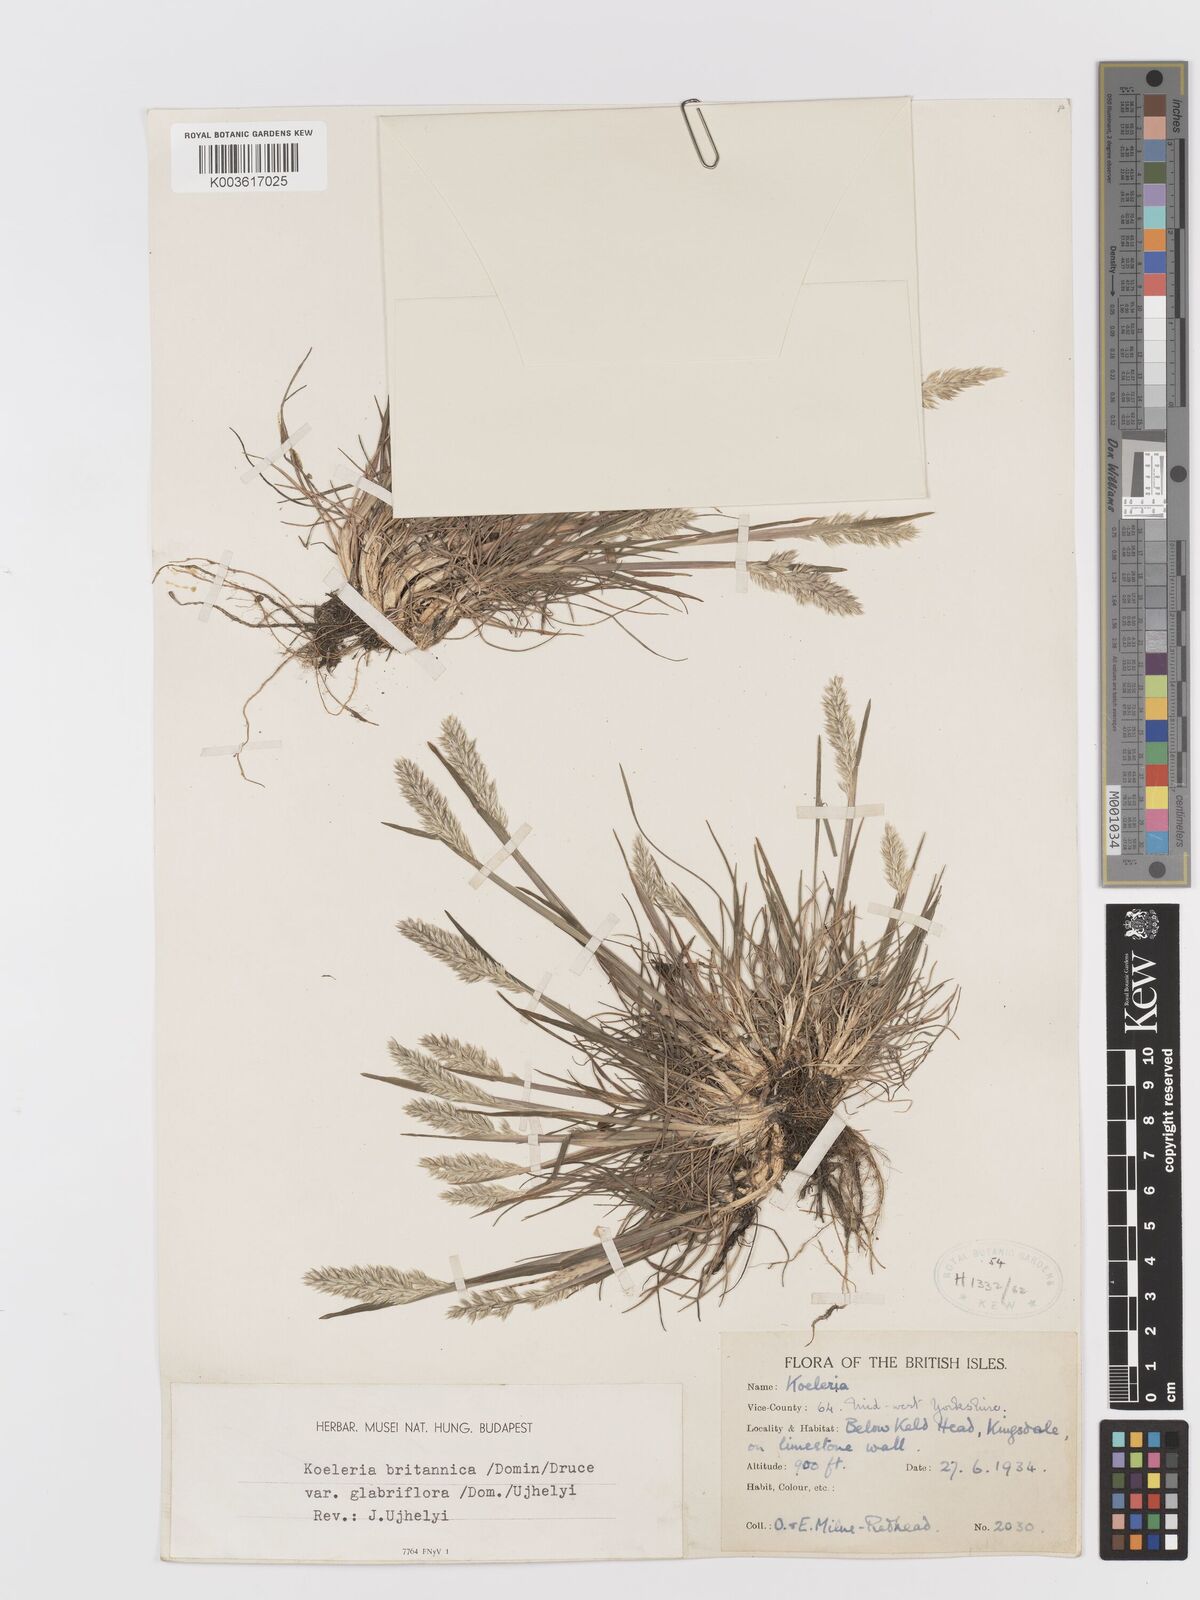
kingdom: Plantae
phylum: Tracheophyta
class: Liliopsida
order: Poales
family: Poaceae
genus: Koeleria
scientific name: Koeleria macrantha
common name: Crested hair-grass
